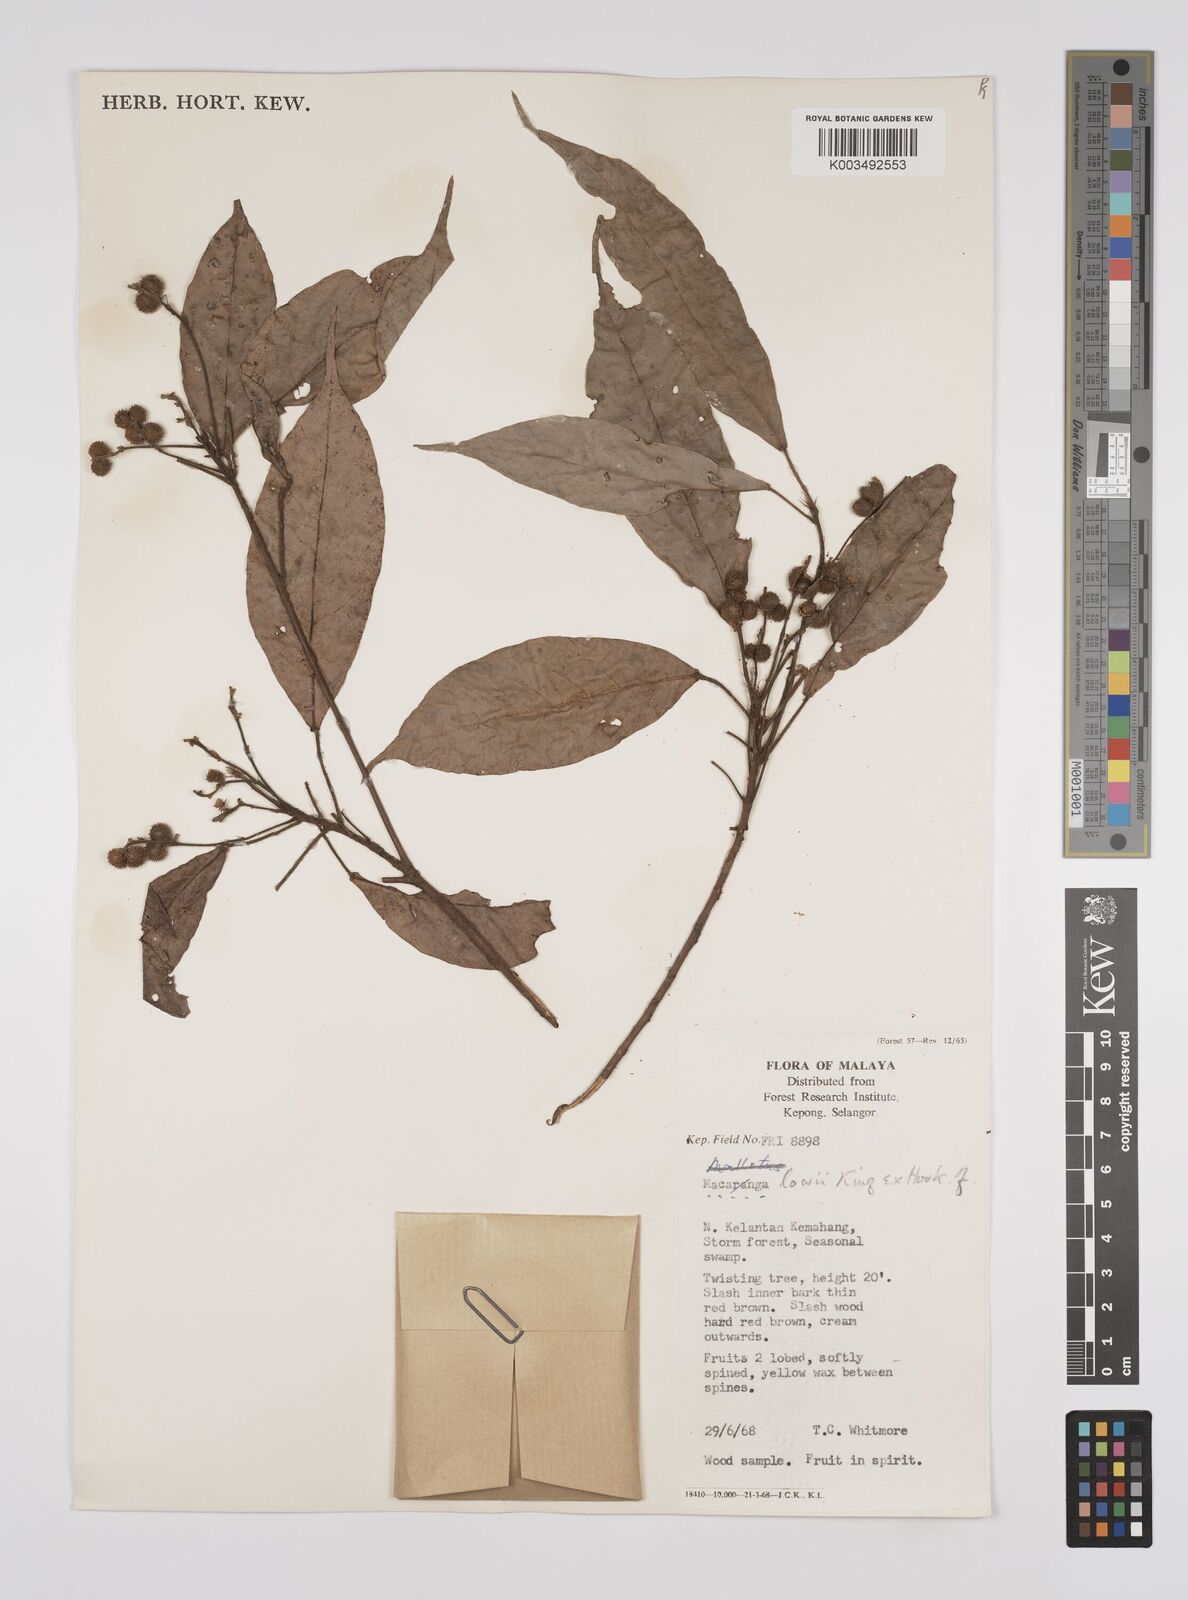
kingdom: Plantae
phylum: Tracheophyta
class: Magnoliopsida
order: Malpighiales
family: Euphorbiaceae
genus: Macaranga
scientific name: Macaranga lowii
